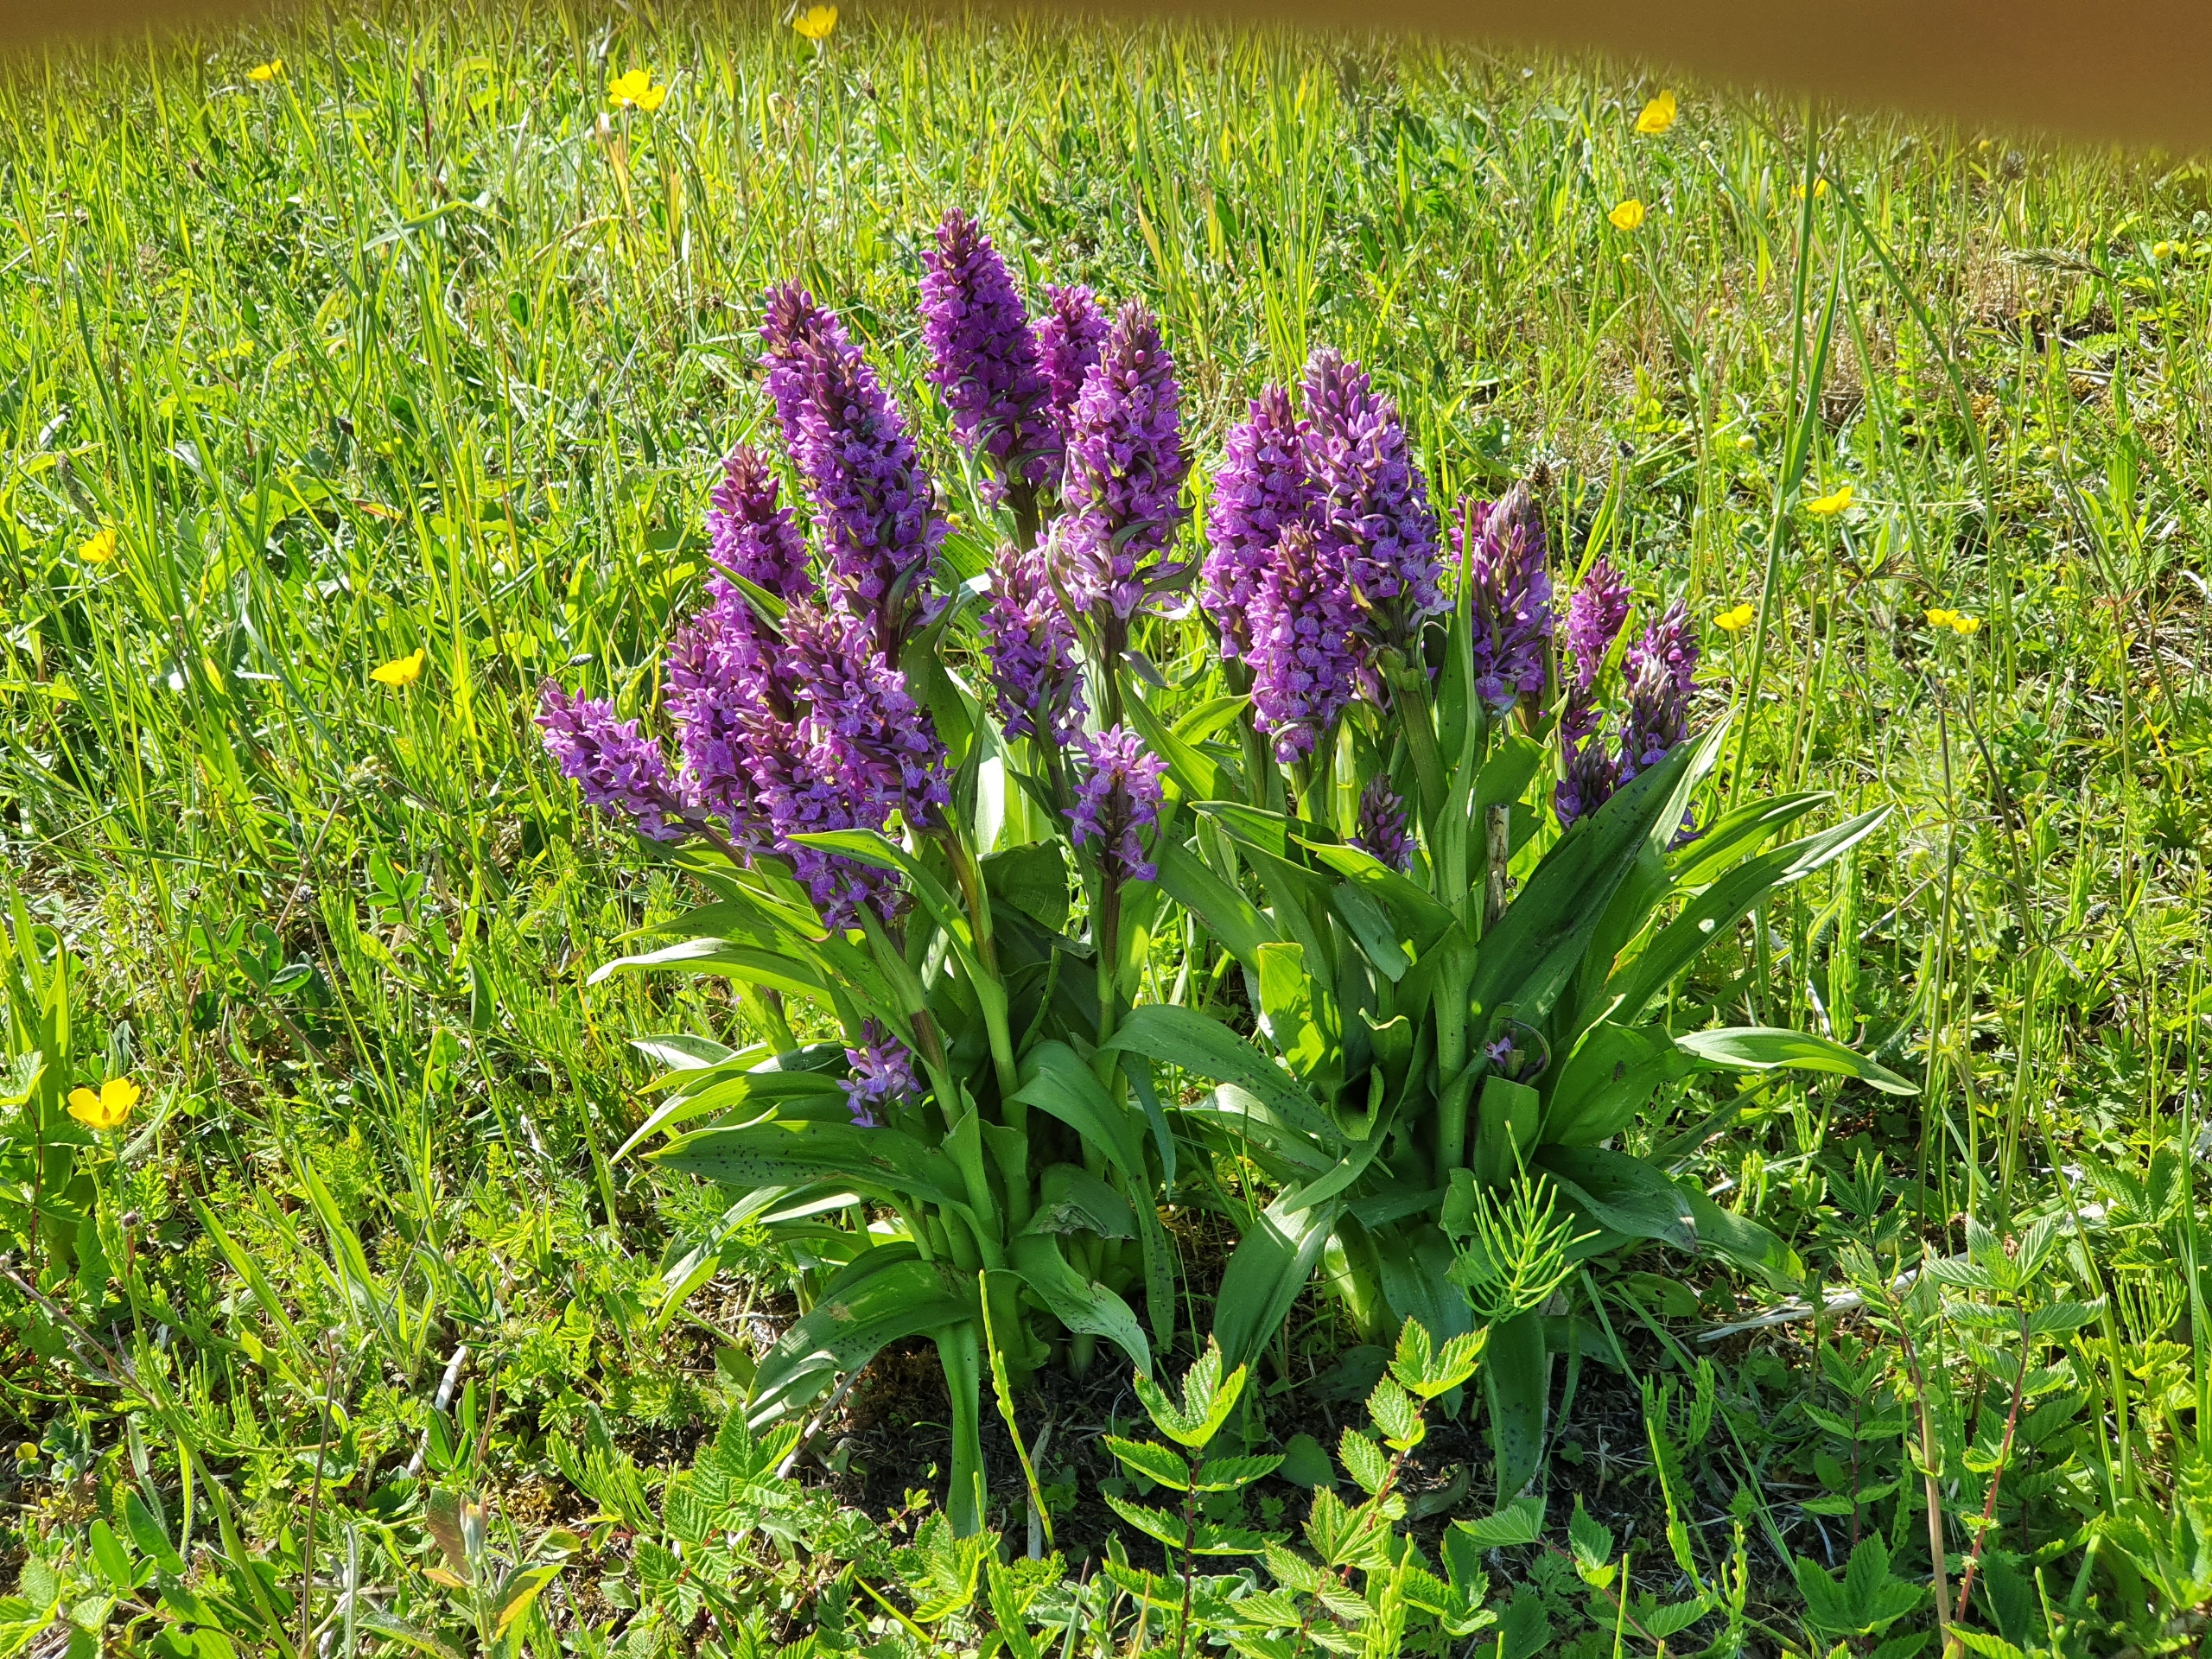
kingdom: Plantae
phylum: Tracheophyta
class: Liliopsida
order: Asparagales
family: Orchidaceae
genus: Dactylorhiza
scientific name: Dactylorhiza majalis
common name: Maj-gøgeurt
